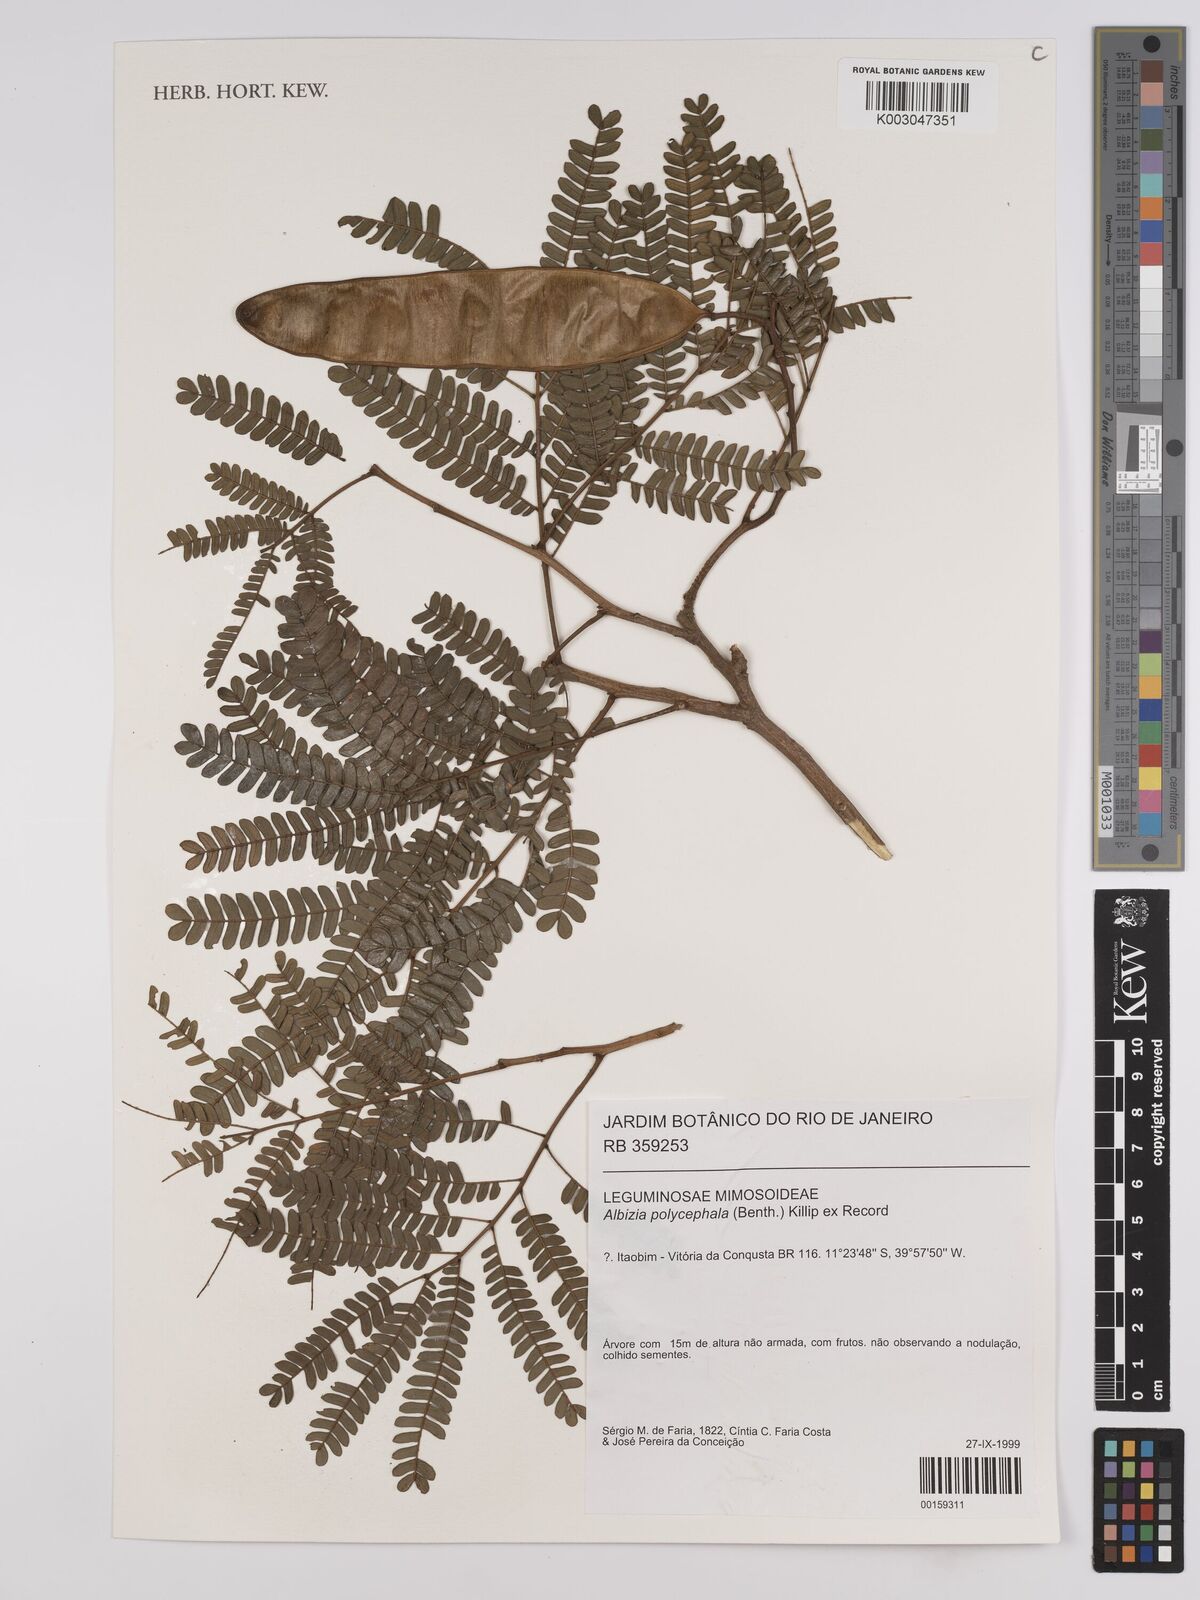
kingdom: Plantae
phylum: Tracheophyta
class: Magnoliopsida
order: Fabales
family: Fabaceae
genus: Albizia
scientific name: Albizia polycephala
